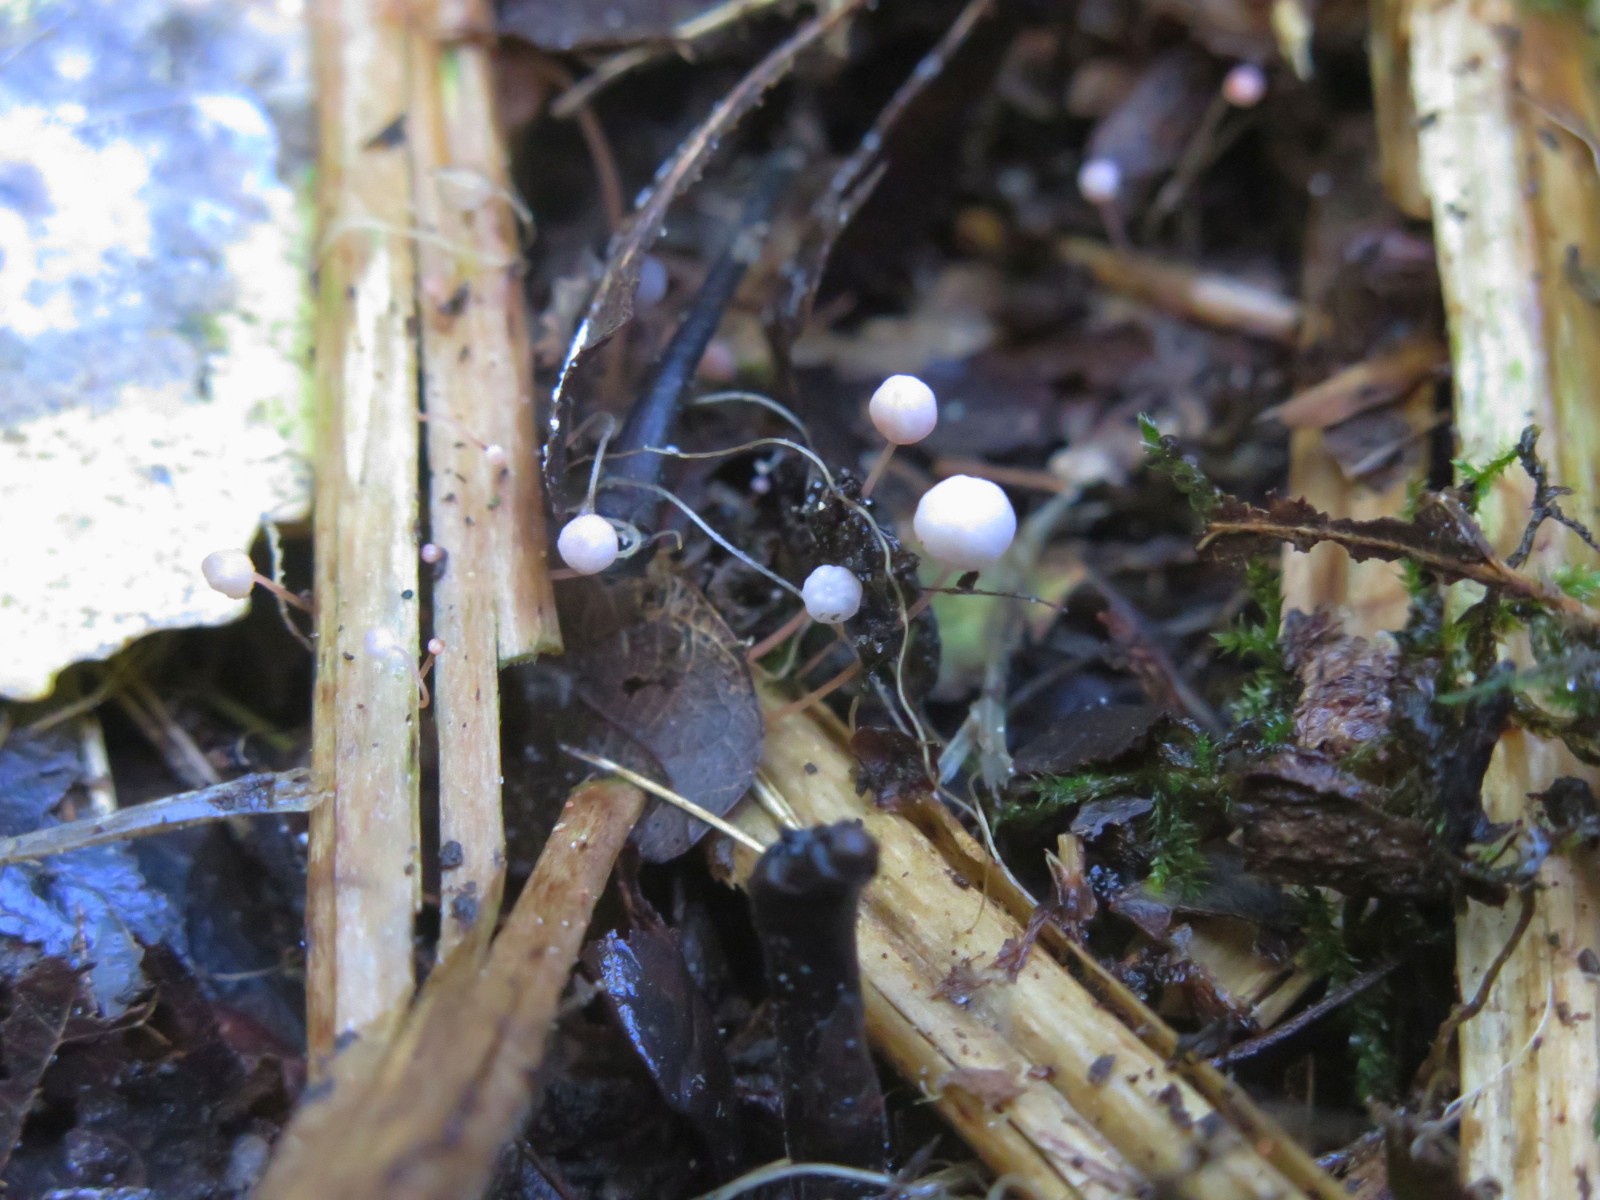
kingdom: Fungi
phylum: Basidiomycota
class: Agaricomycetes
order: Agaricales
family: Mycenaceae
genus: Mycena
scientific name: Mycena pterigena
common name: bregne-huesvamp
